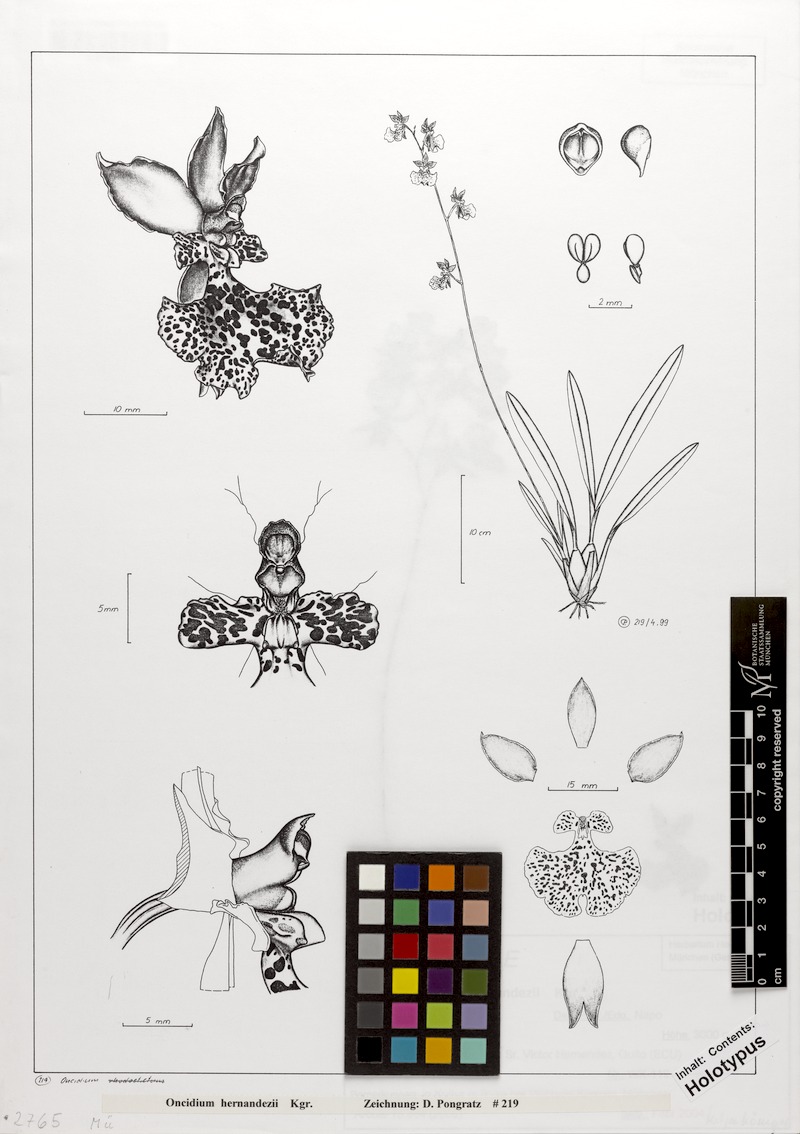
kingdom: Plantae
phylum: Tracheophyta
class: Liliopsida
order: Asparagales
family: Orchidaceae
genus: Caucaea
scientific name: Caucaea hernandezii
